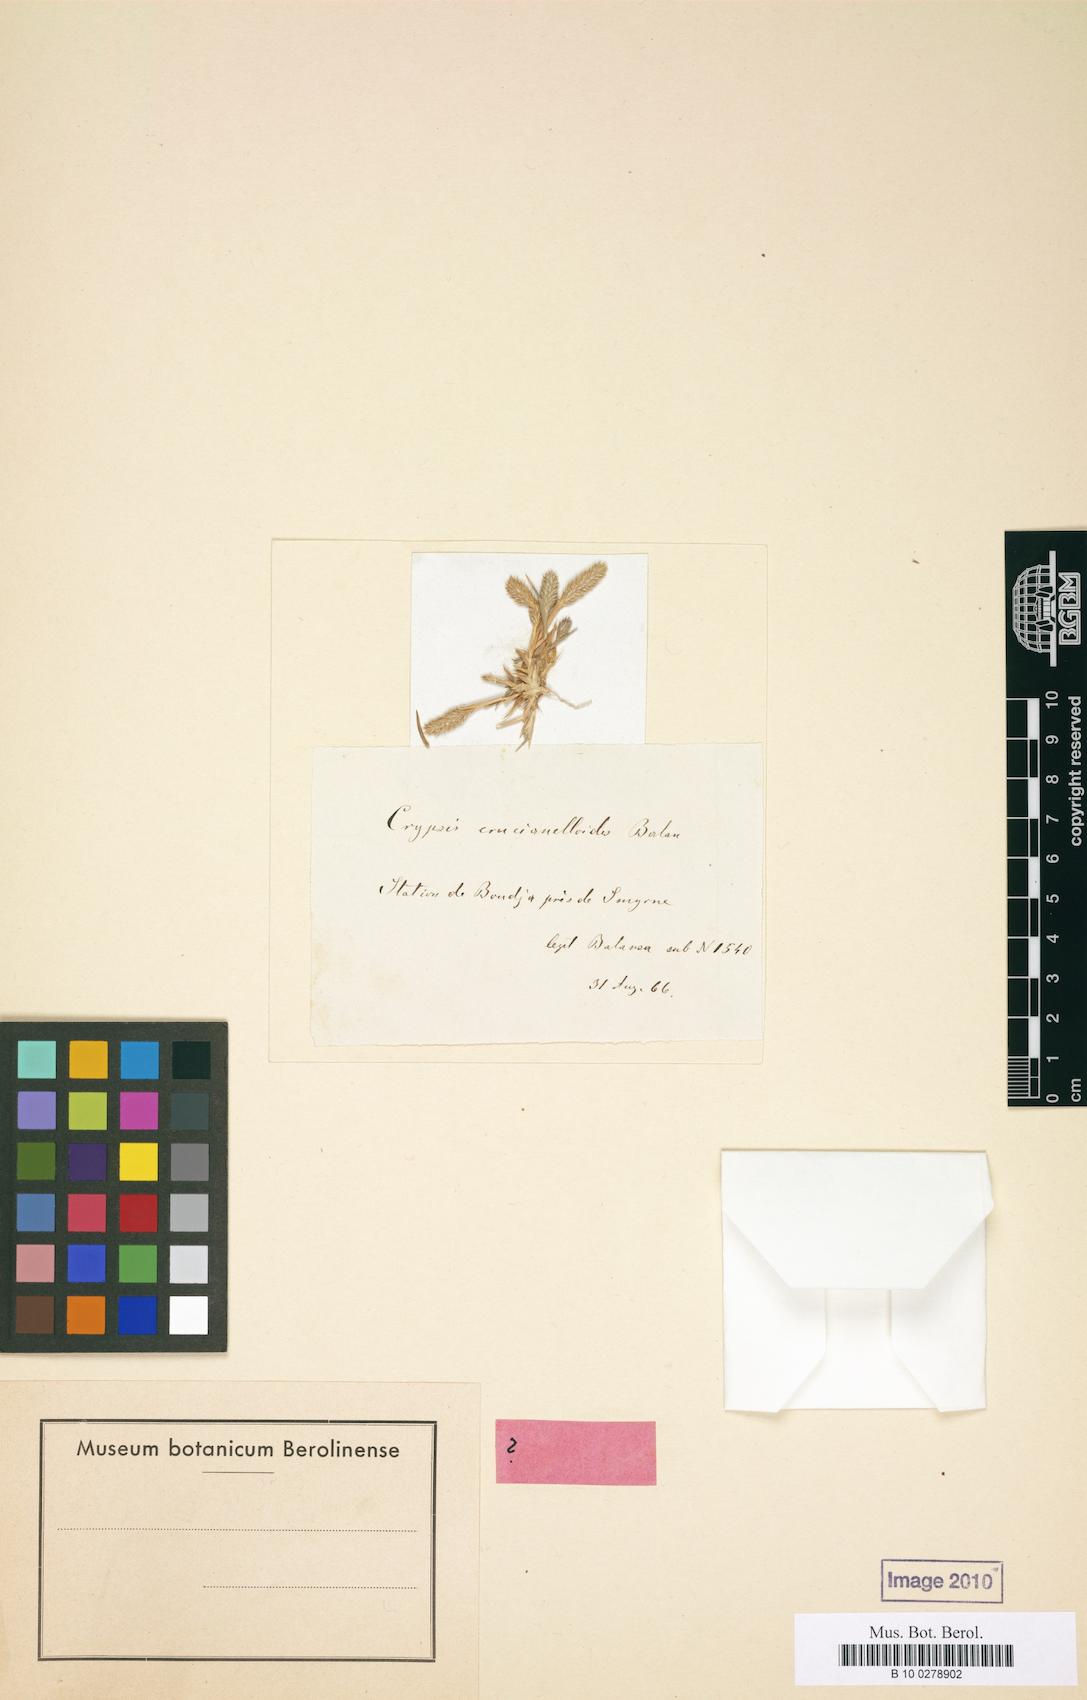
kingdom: Plantae
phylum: Tracheophyta
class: Liliopsida
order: Poales
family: Poaceae
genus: Sporobolus
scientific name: Sporobolus borszczowii
